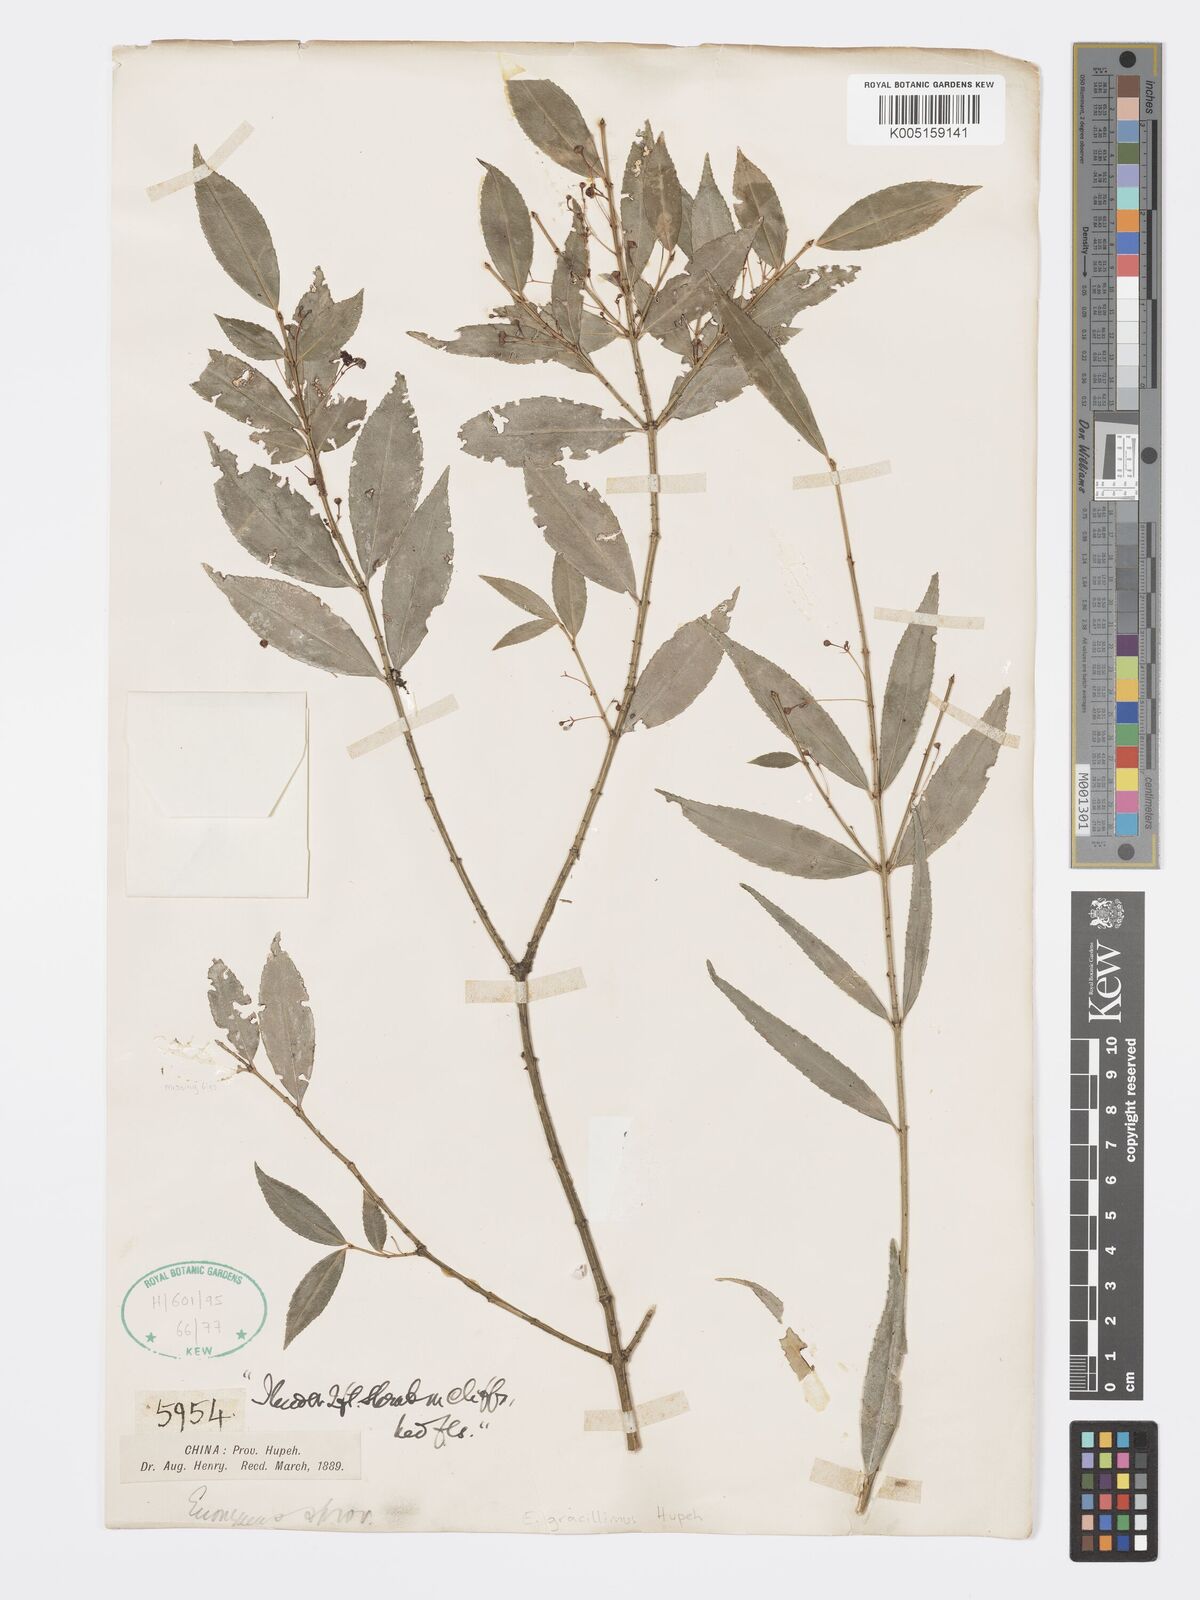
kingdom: Plantae
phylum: Tracheophyta
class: Magnoliopsida
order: Celastrales
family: Celastraceae
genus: Euonymus
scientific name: Euonymus gracillimus
